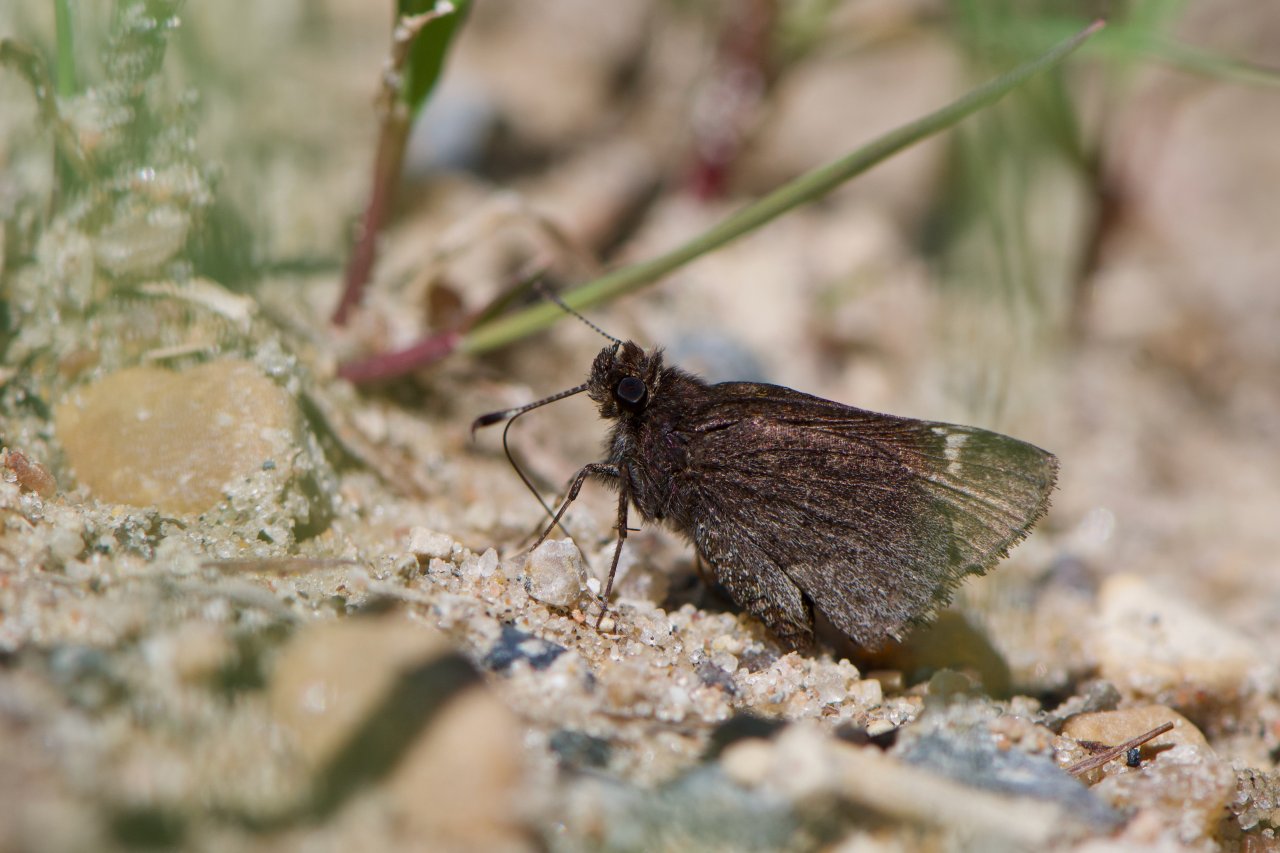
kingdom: Animalia
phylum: Arthropoda
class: Insecta
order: Lepidoptera
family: Hesperiidae
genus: Mastor
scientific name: Mastor vialis
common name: Common Roadside-Skipper
